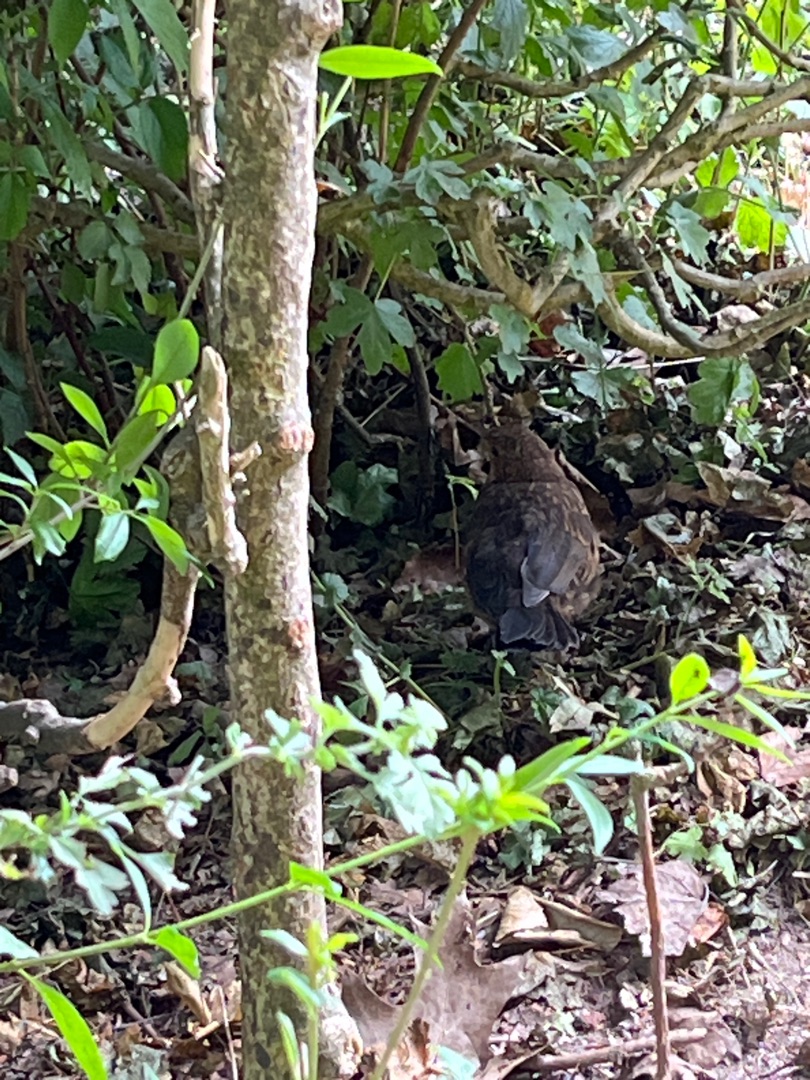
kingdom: Animalia
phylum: Chordata
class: Aves
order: Passeriformes
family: Turdidae
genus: Turdus
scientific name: Turdus merula
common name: Solsort
